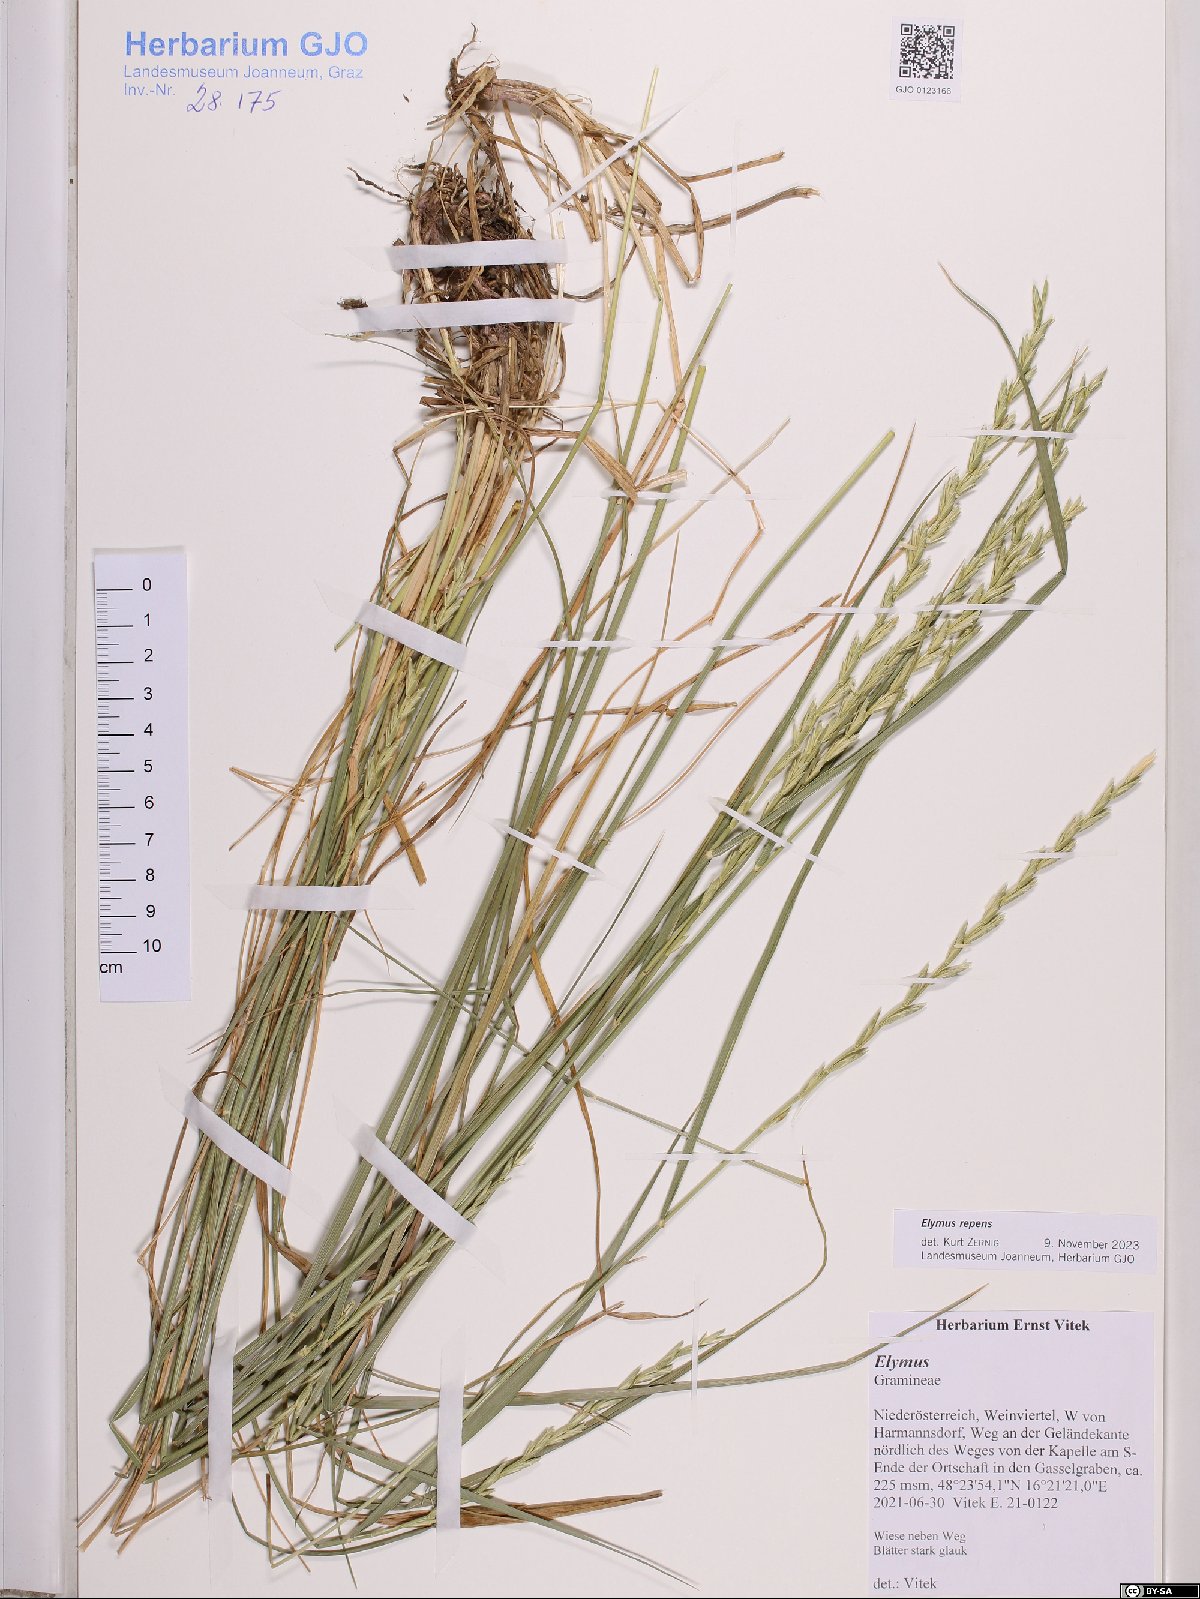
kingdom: Plantae
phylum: Tracheophyta
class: Liliopsida
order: Poales
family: Poaceae
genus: Elymus
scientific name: Elymus repens
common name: Quackgrass
